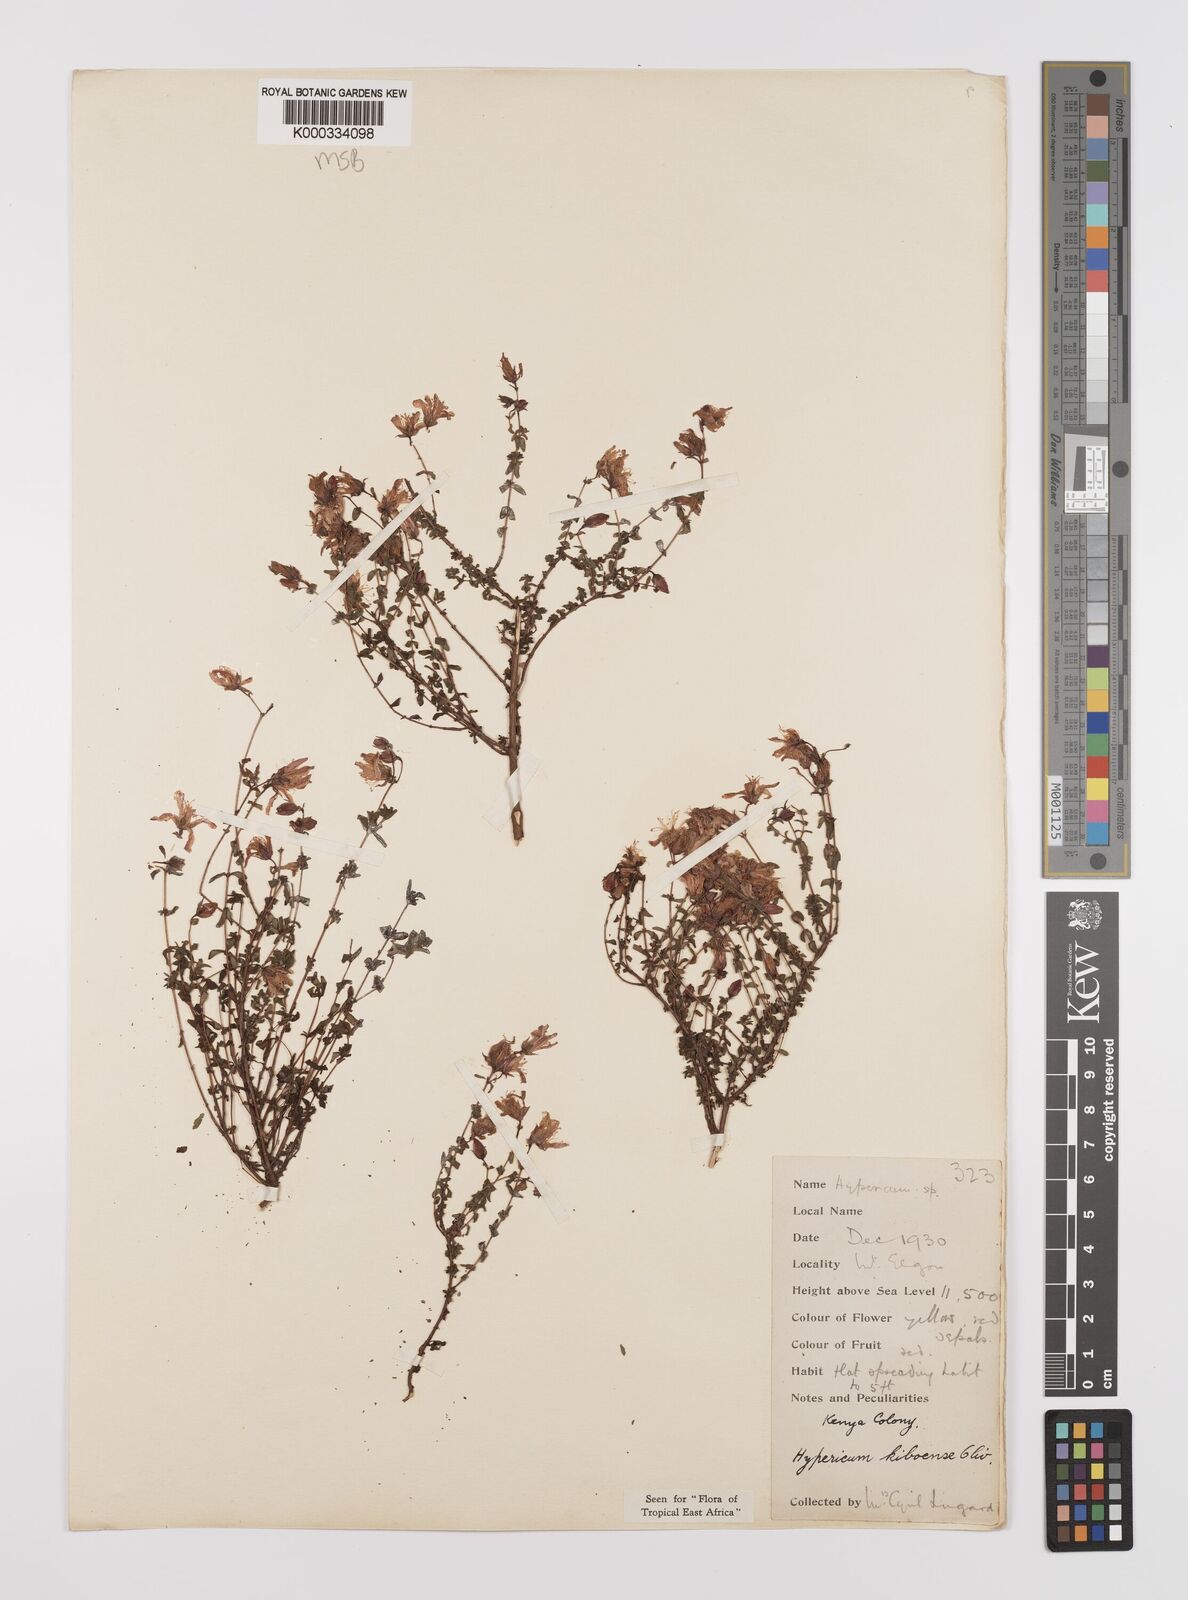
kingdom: Plantae
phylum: Tracheophyta
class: Magnoliopsida
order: Malpighiales
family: Hypericaceae
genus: Hypericum
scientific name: Hypericum kiboense
